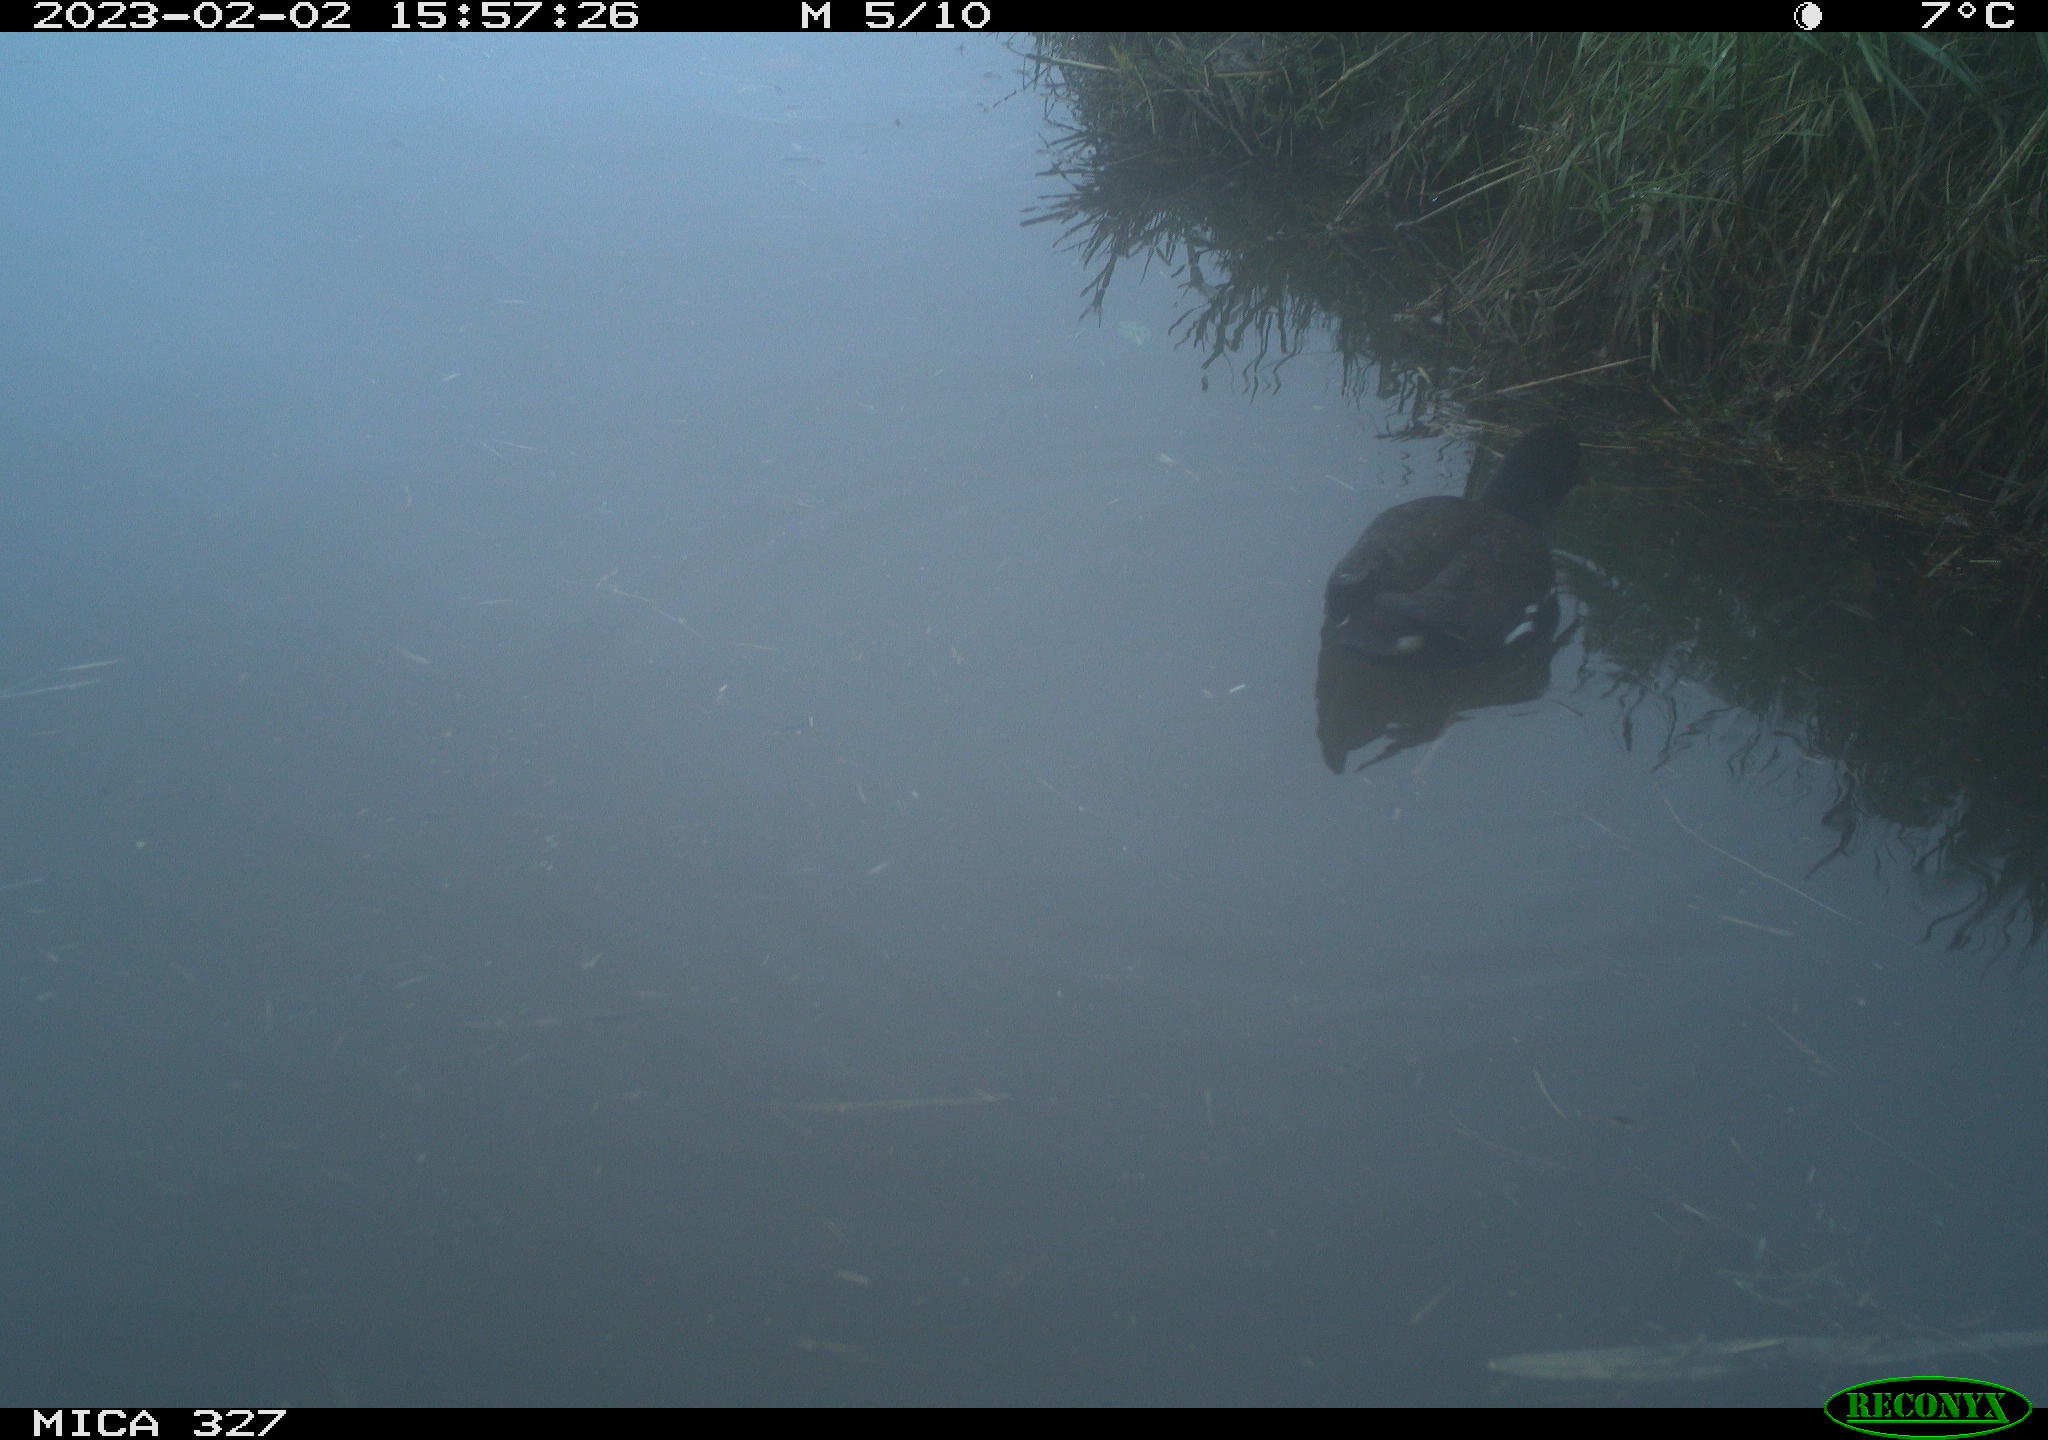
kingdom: Animalia
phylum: Chordata
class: Aves
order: Gruiformes
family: Rallidae
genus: Gallinula
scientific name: Gallinula chloropus
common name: Common moorhen
